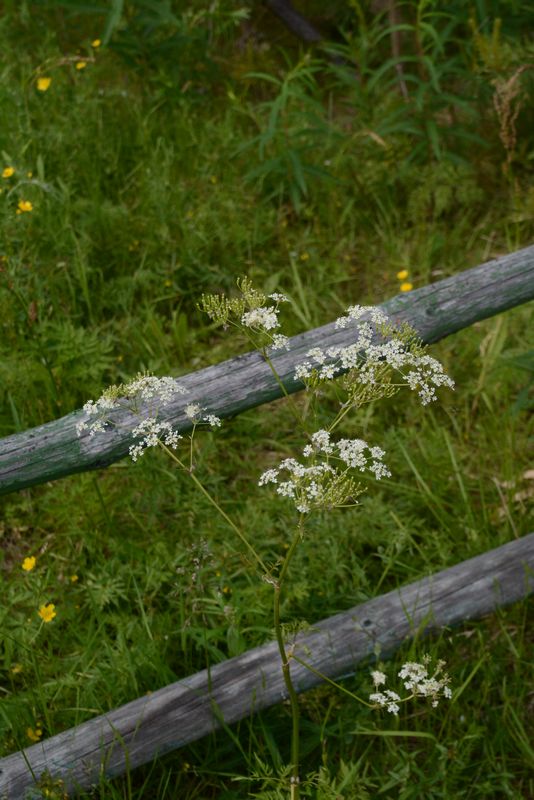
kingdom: Plantae
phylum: Tracheophyta
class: Magnoliopsida
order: Apiales
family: Apiaceae
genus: Anthriscus
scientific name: Anthriscus sylvestris
